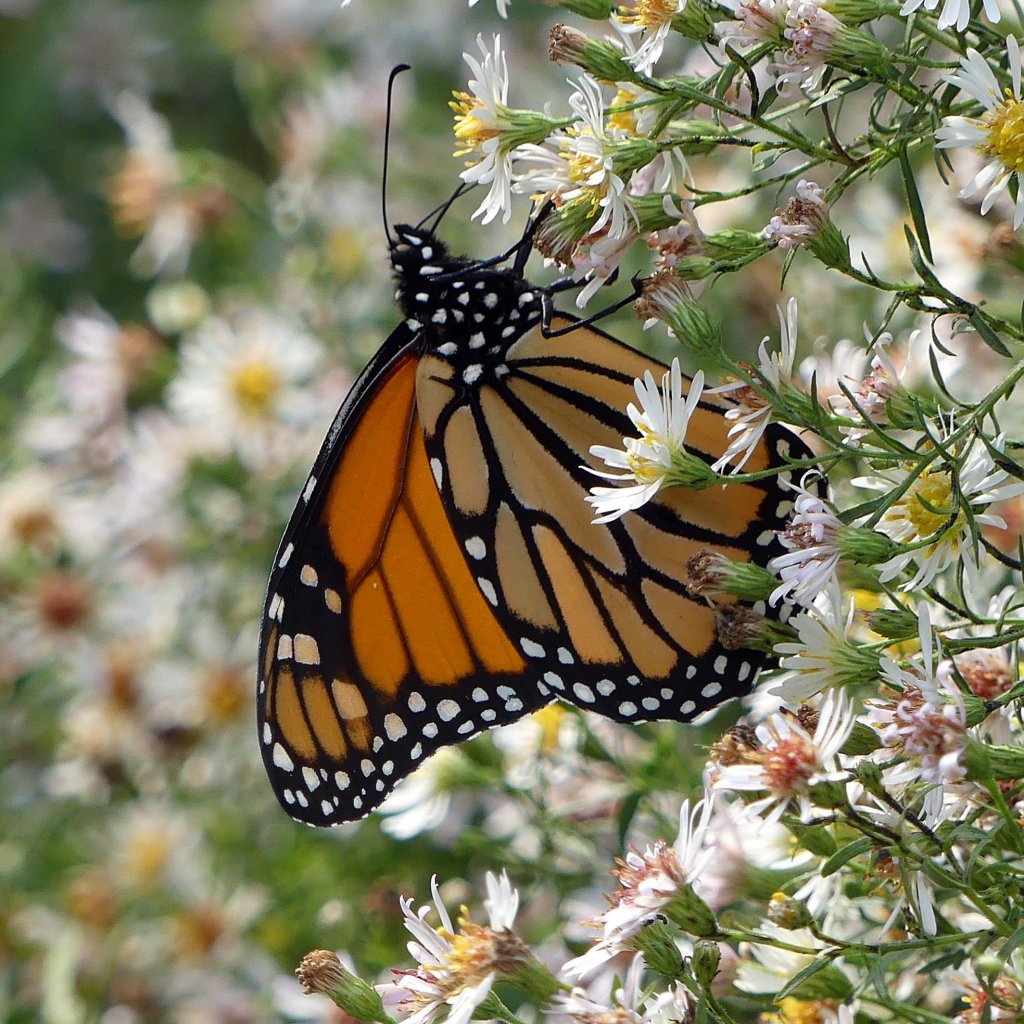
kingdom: Animalia
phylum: Arthropoda
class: Insecta
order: Lepidoptera
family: Nymphalidae
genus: Danaus
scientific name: Danaus plexippus
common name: Monarch
